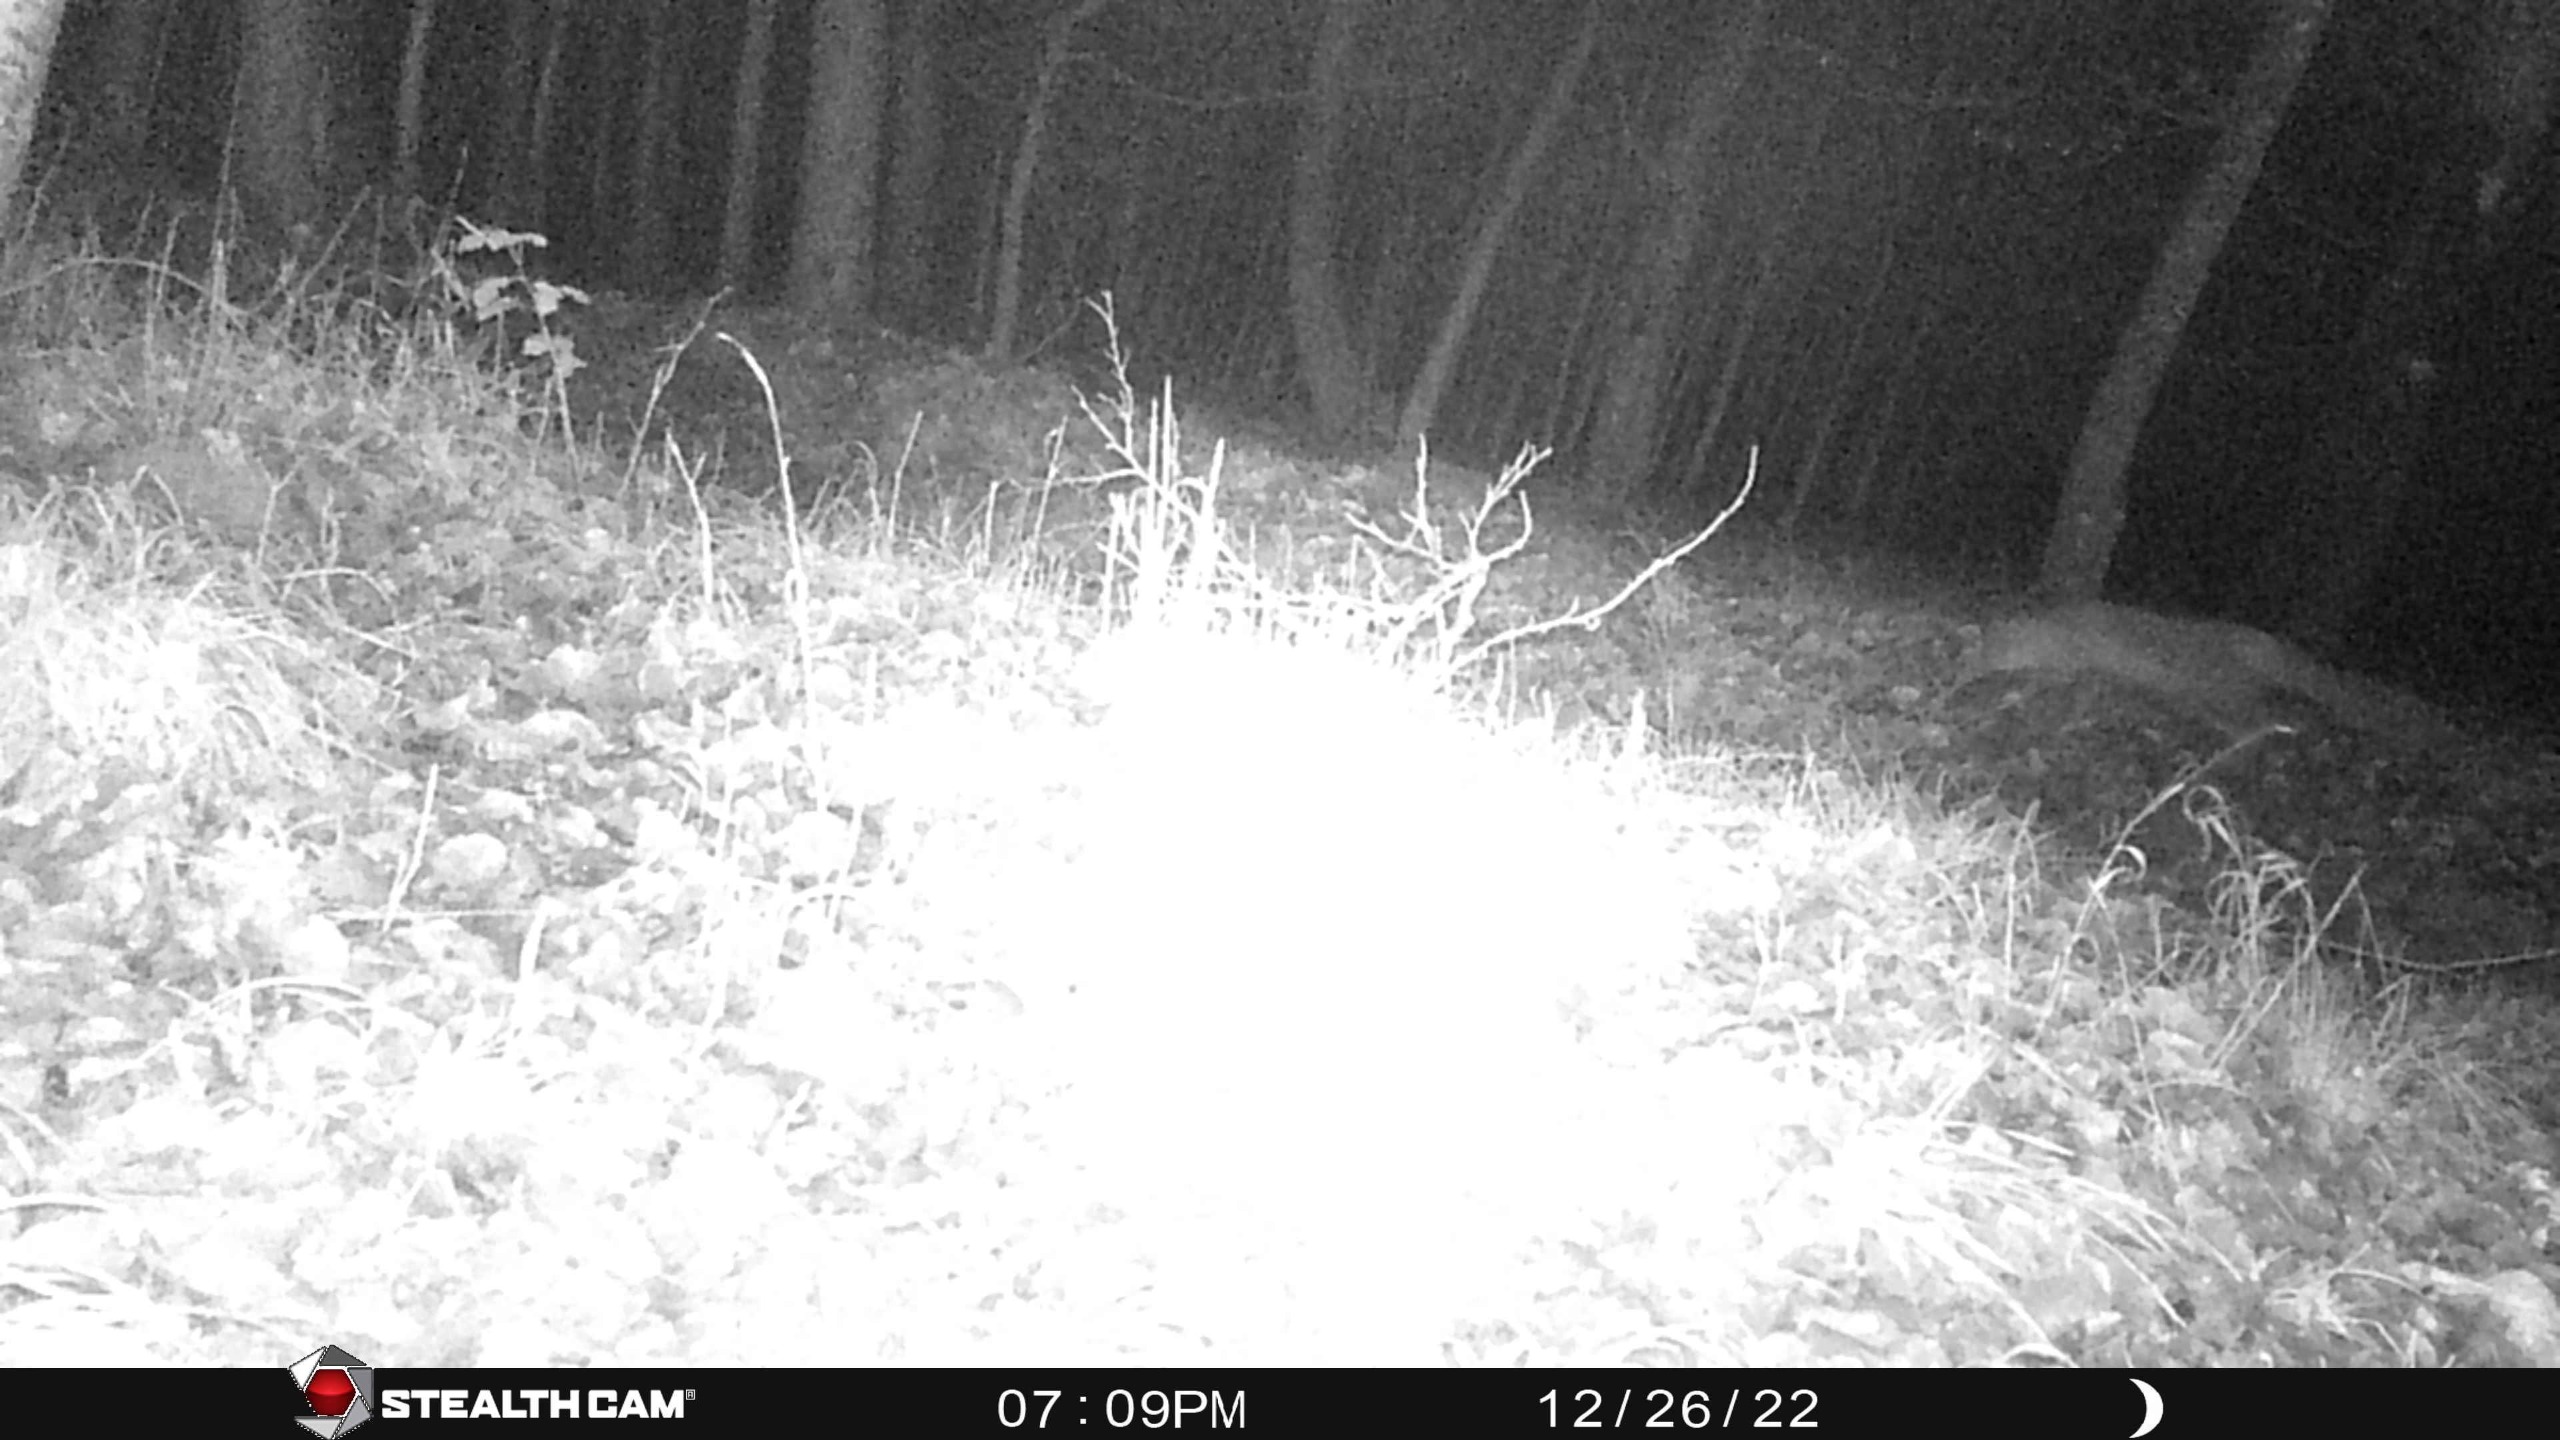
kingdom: Animalia
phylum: Chordata
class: Mammalia
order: Carnivora
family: Canidae
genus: Vulpes
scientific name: Vulpes vulpes
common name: Ræv
